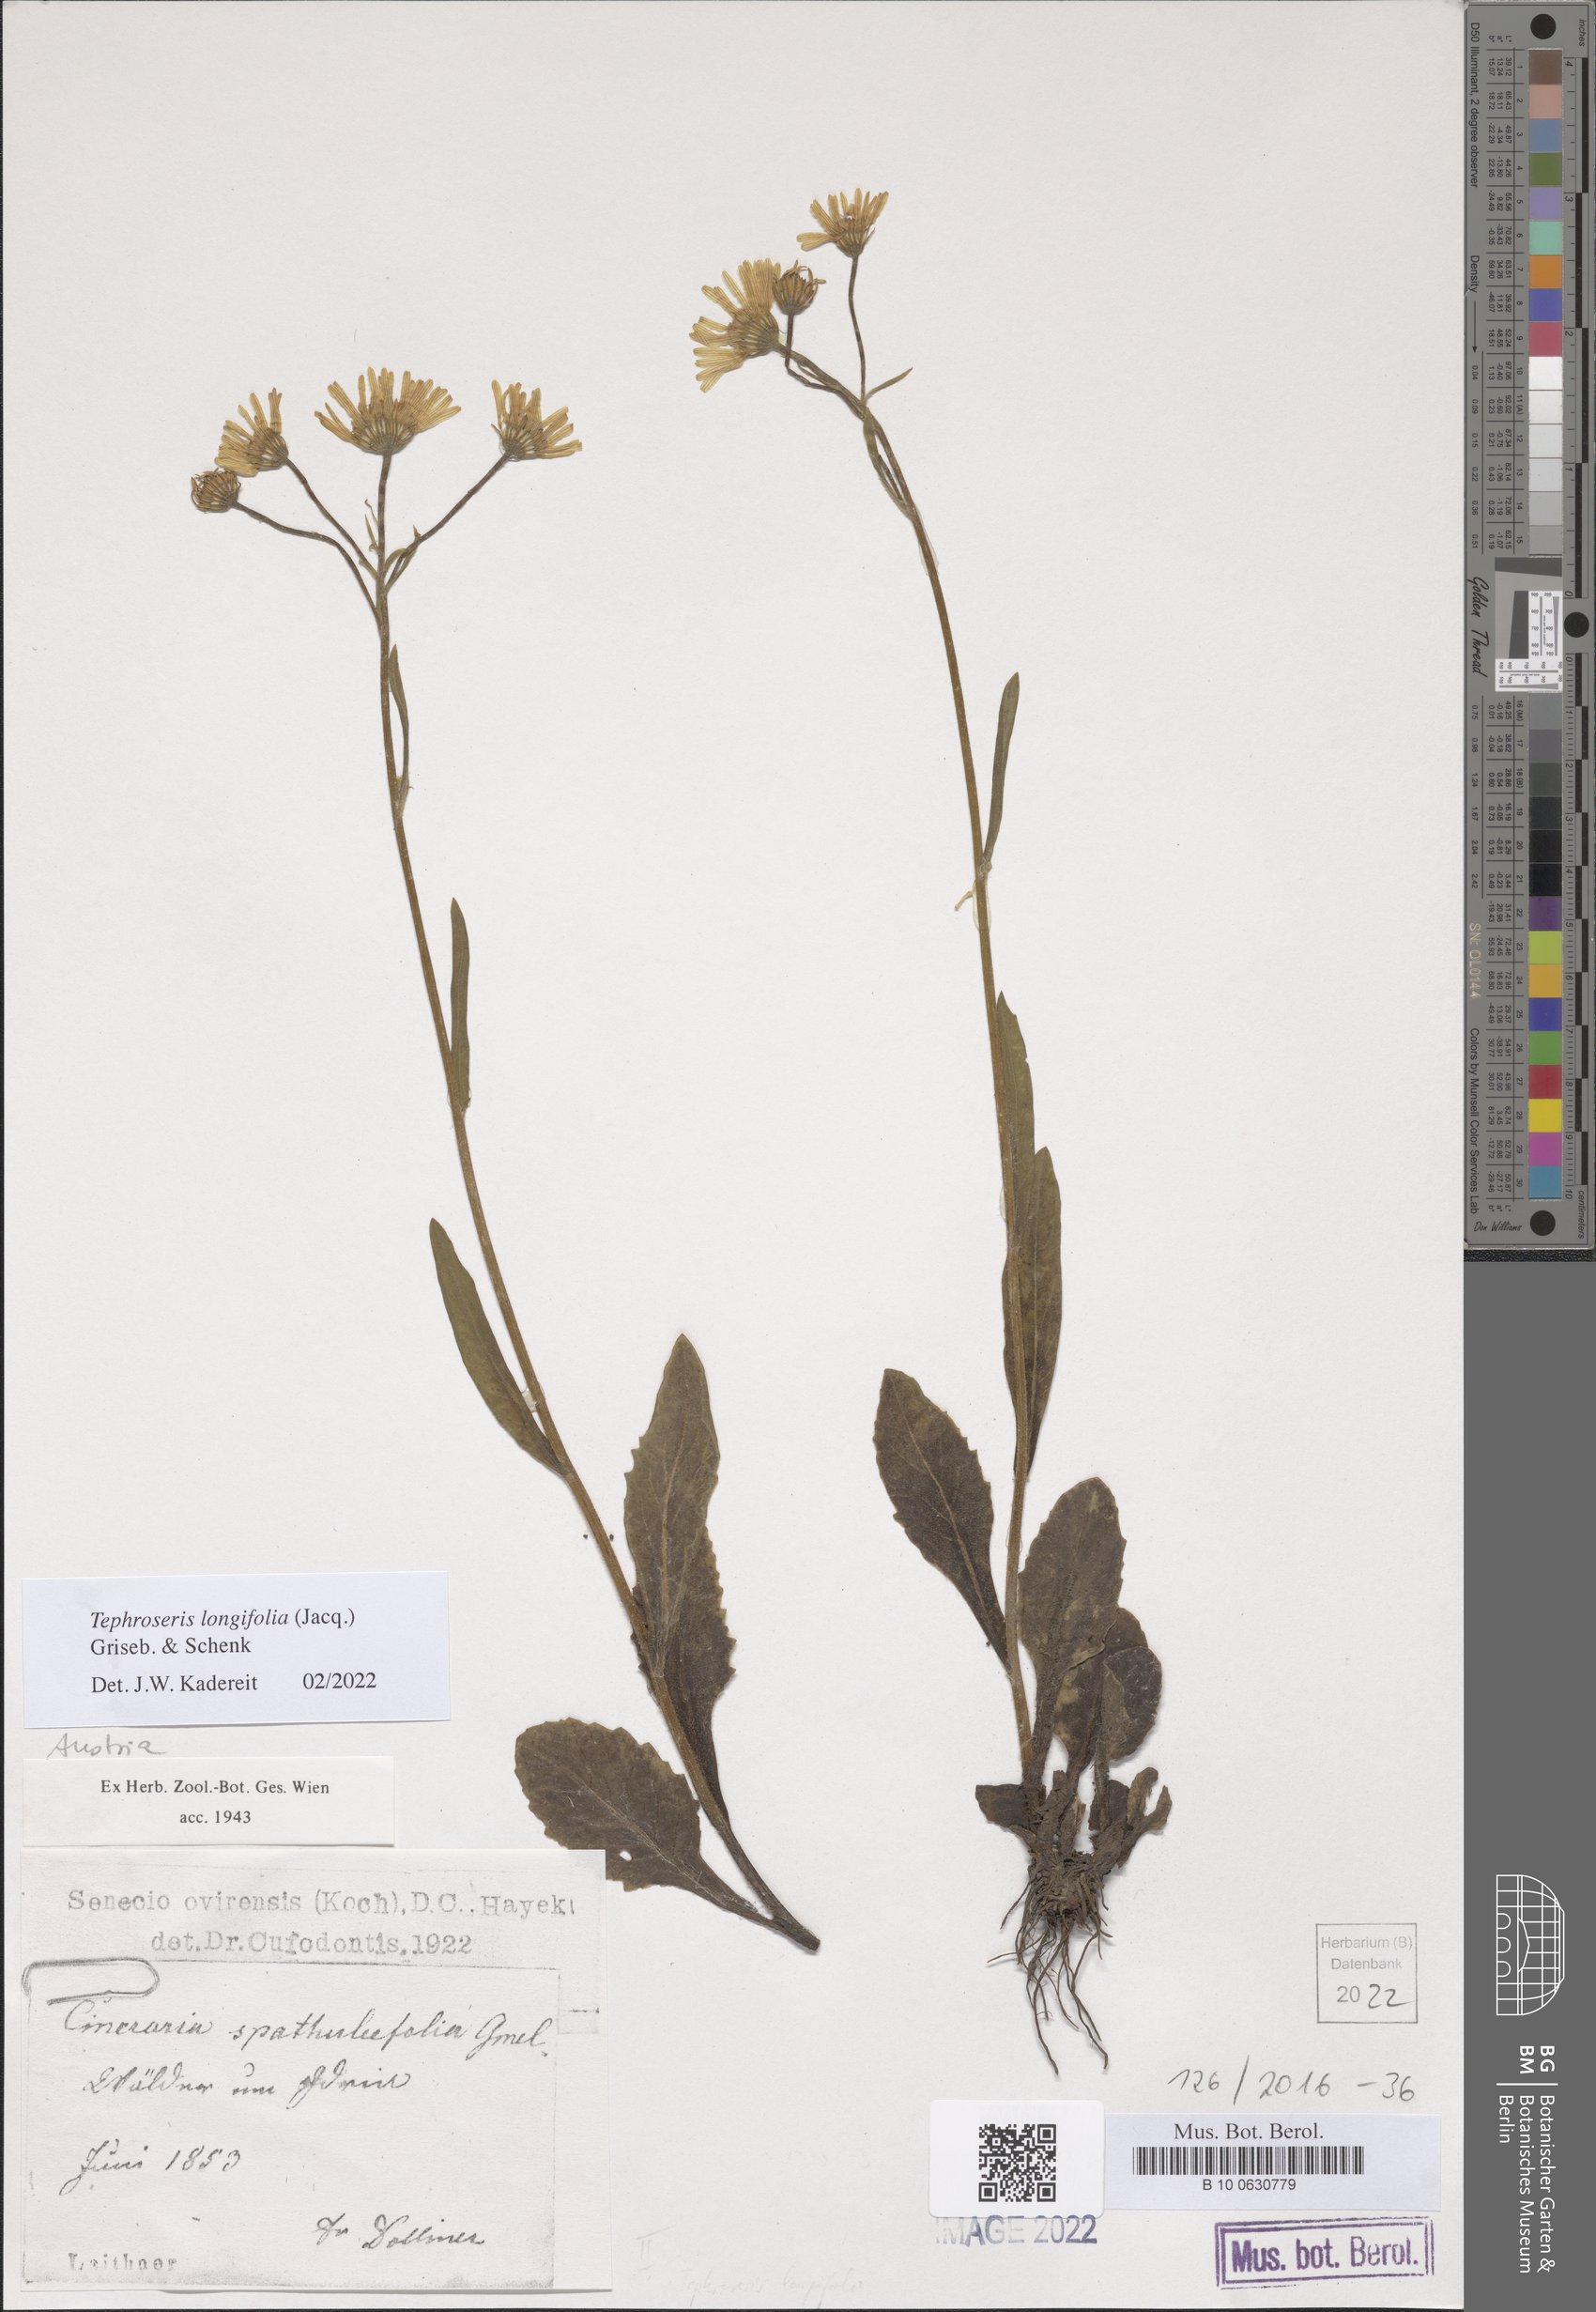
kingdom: Plantae
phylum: Tracheophyta
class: Magnoliopsida
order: Asterales
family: Asteraceae
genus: Tephroseris
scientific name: Tephroseris longifolia
